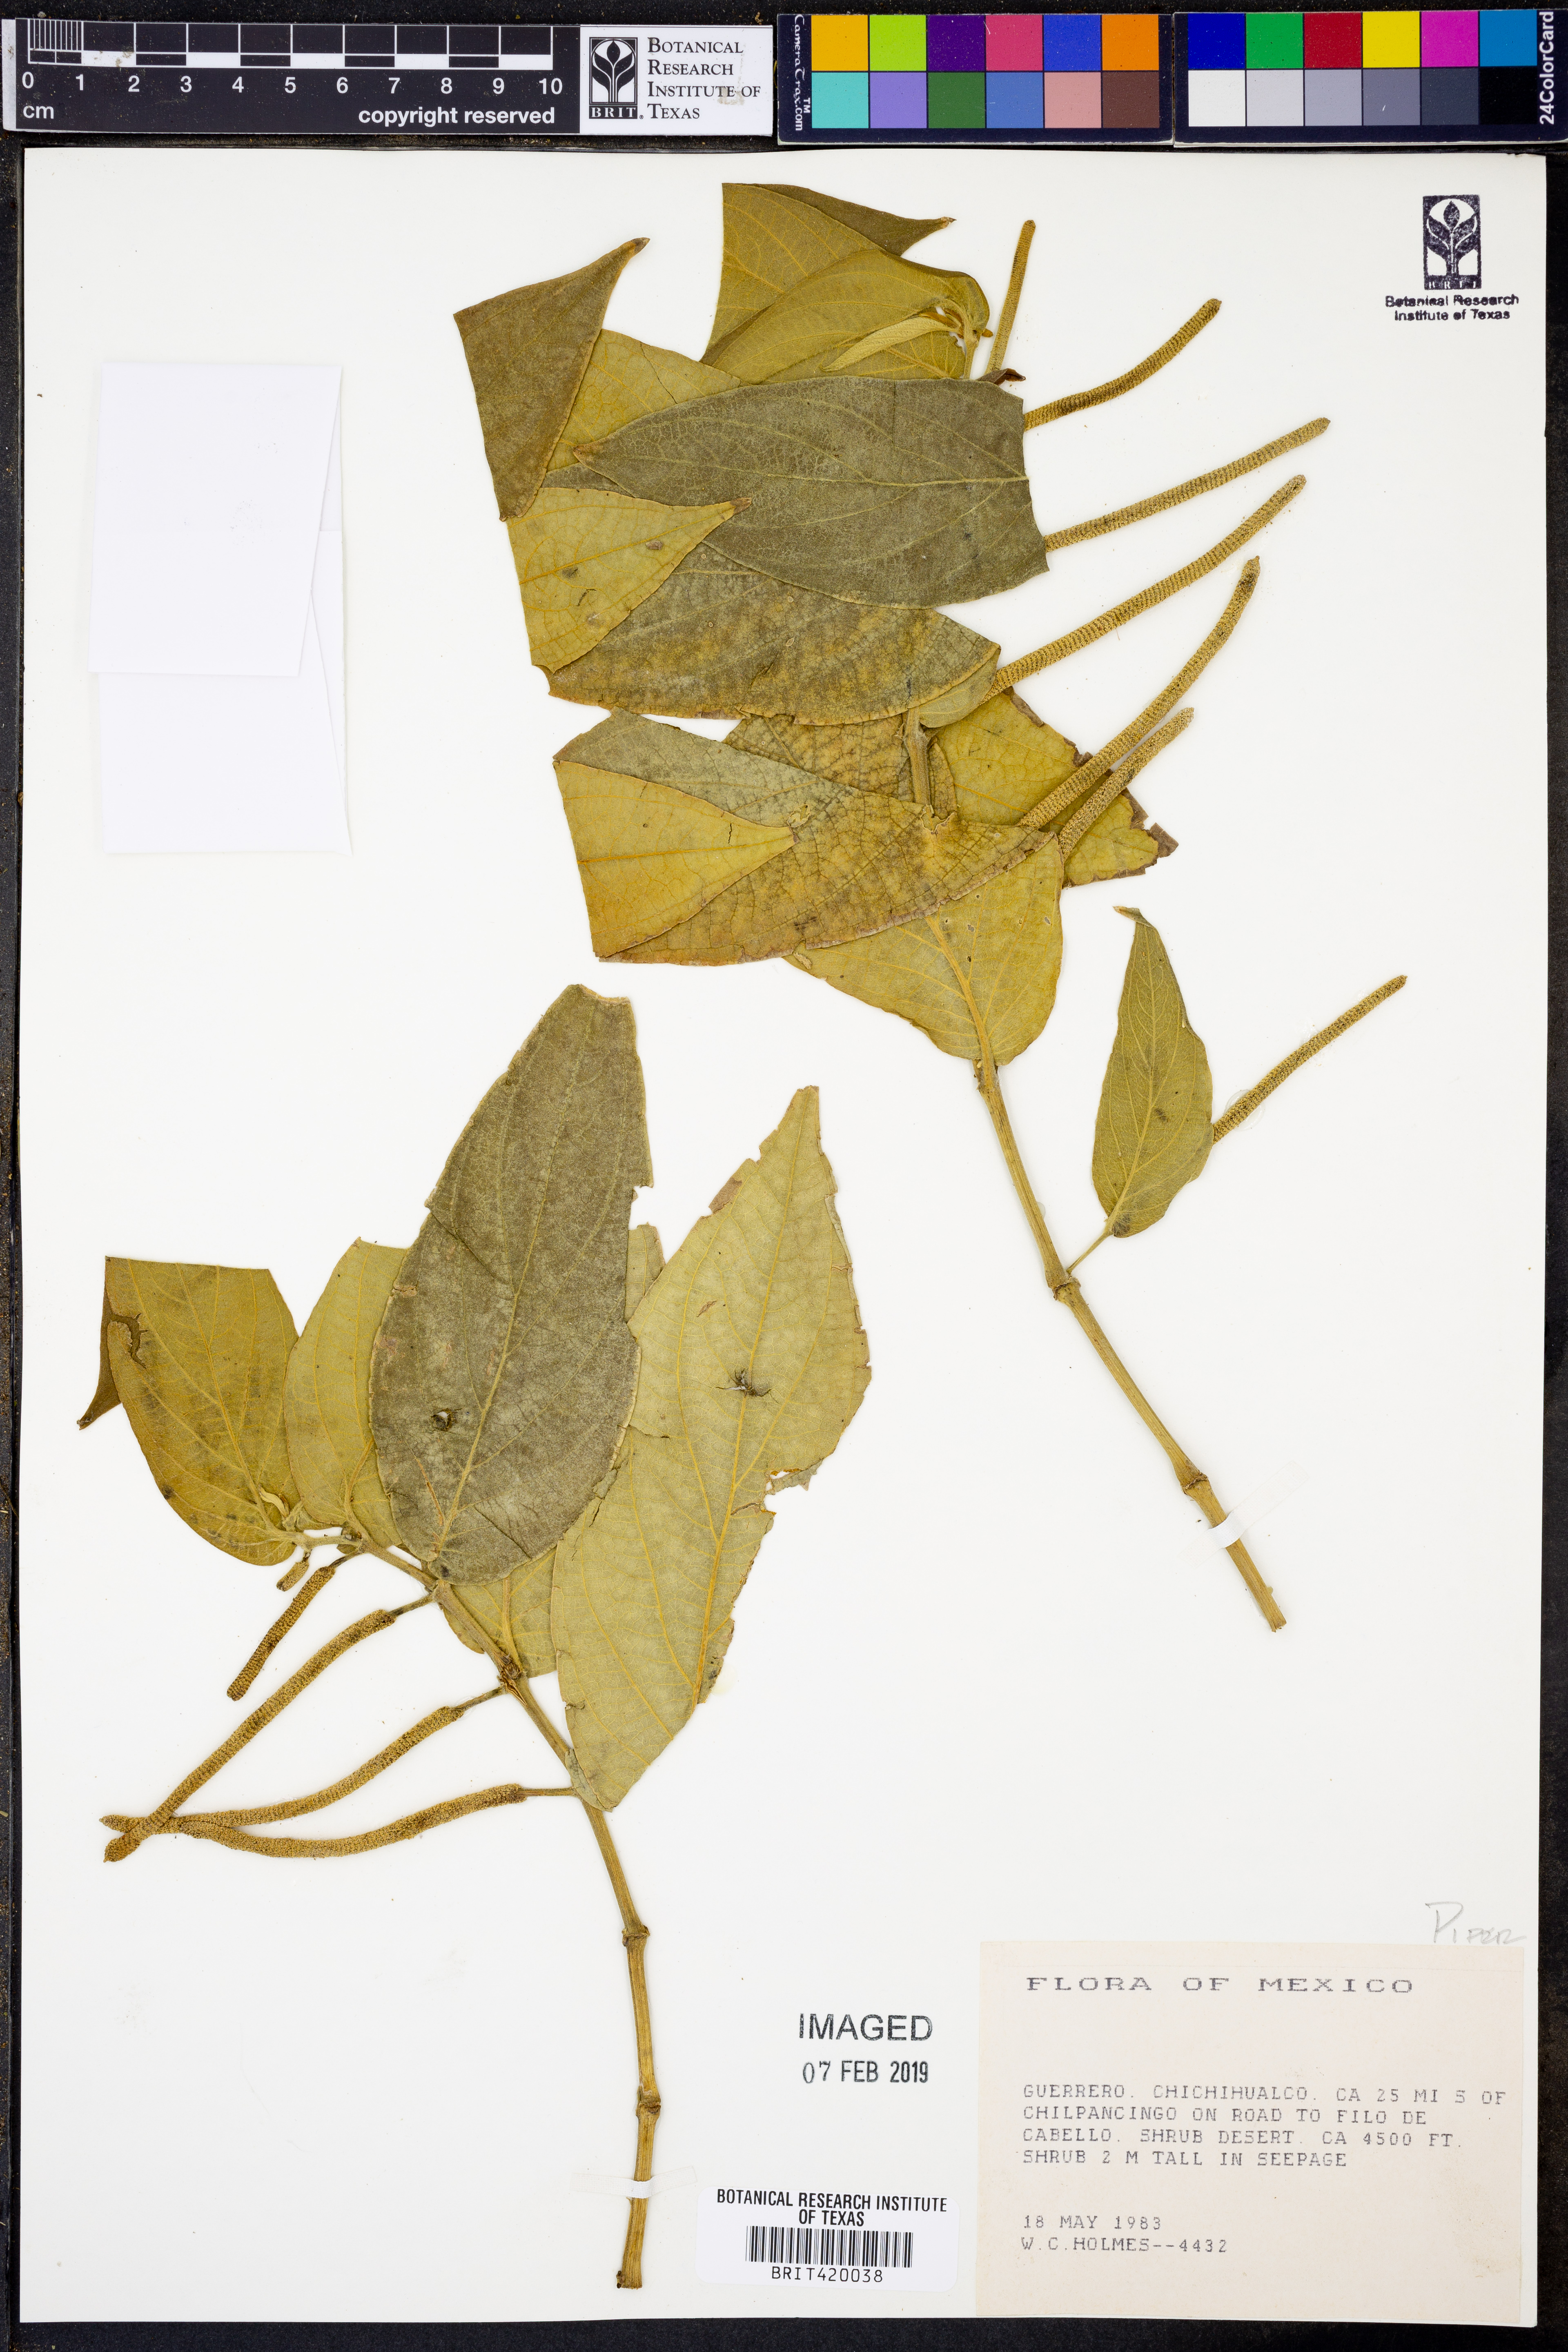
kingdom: Plantae
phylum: Tracheophyta
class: Magnoliopsida
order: Piperales
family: Piperaceae
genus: Piper
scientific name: Piper
